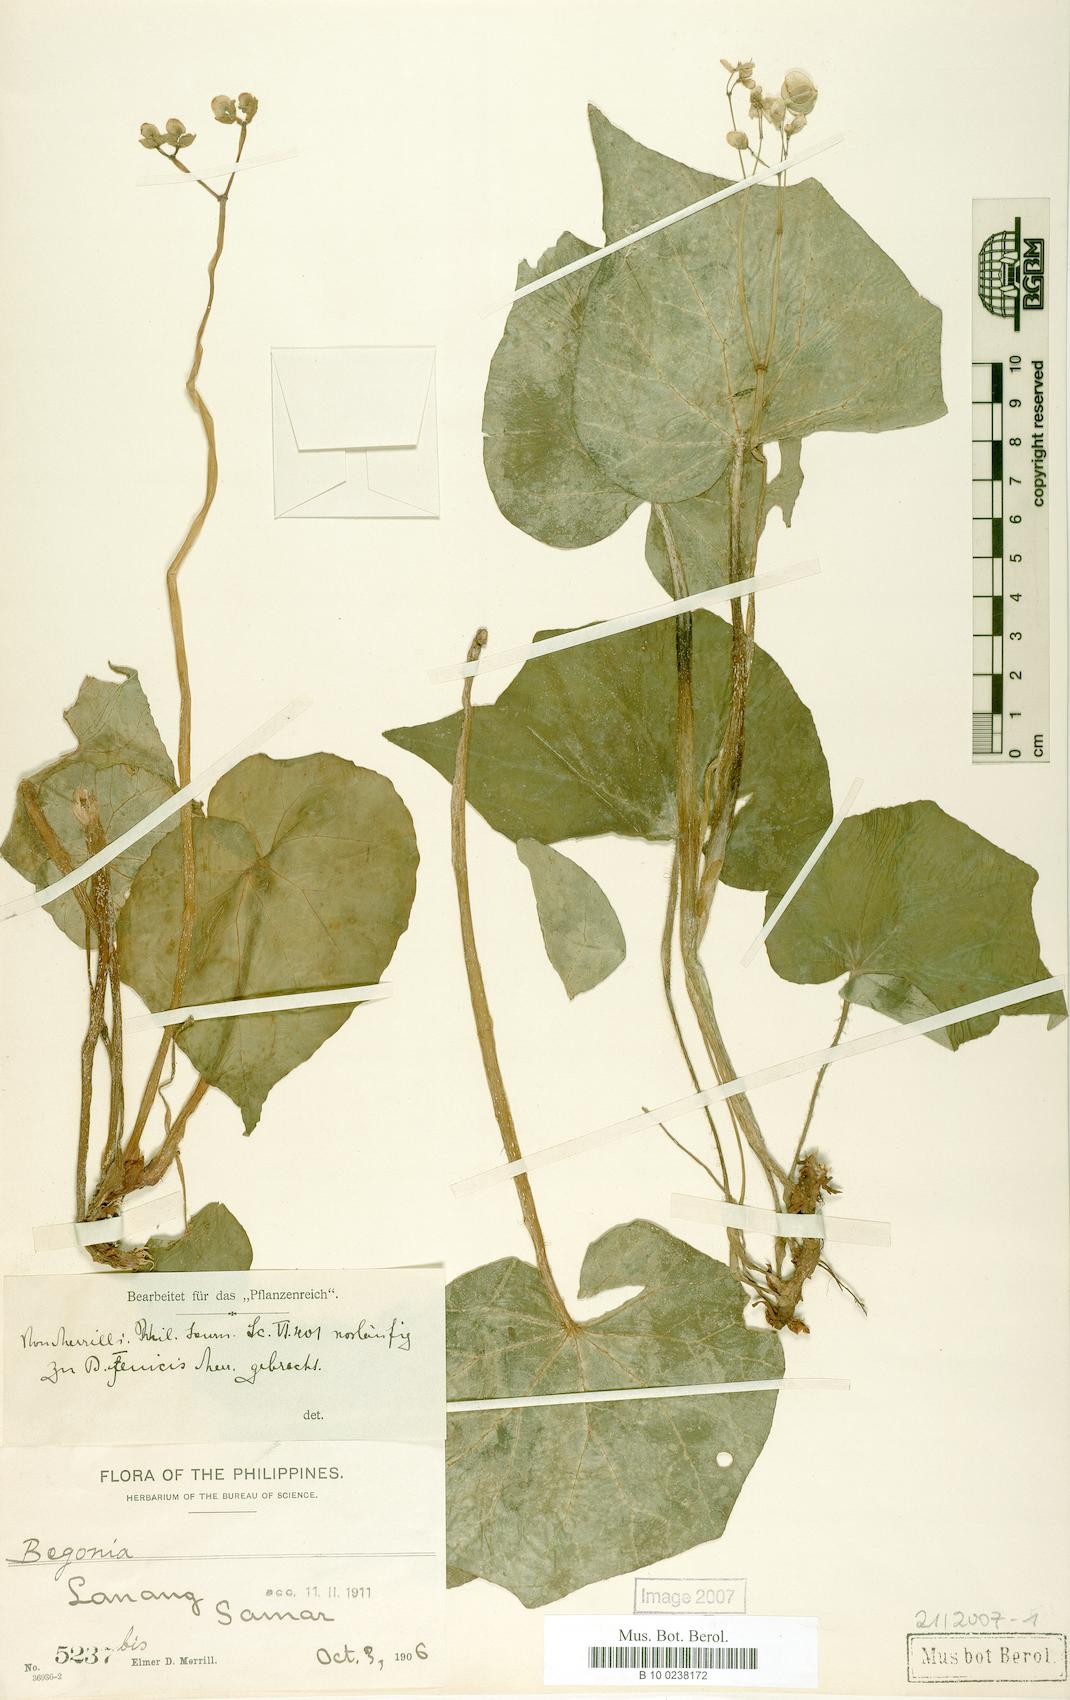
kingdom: Plantae
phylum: Tracheophyta
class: Magnoliopsida
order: Cucurbitales
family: Begoniaceae
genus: Begonia
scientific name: Begonia fenicis
